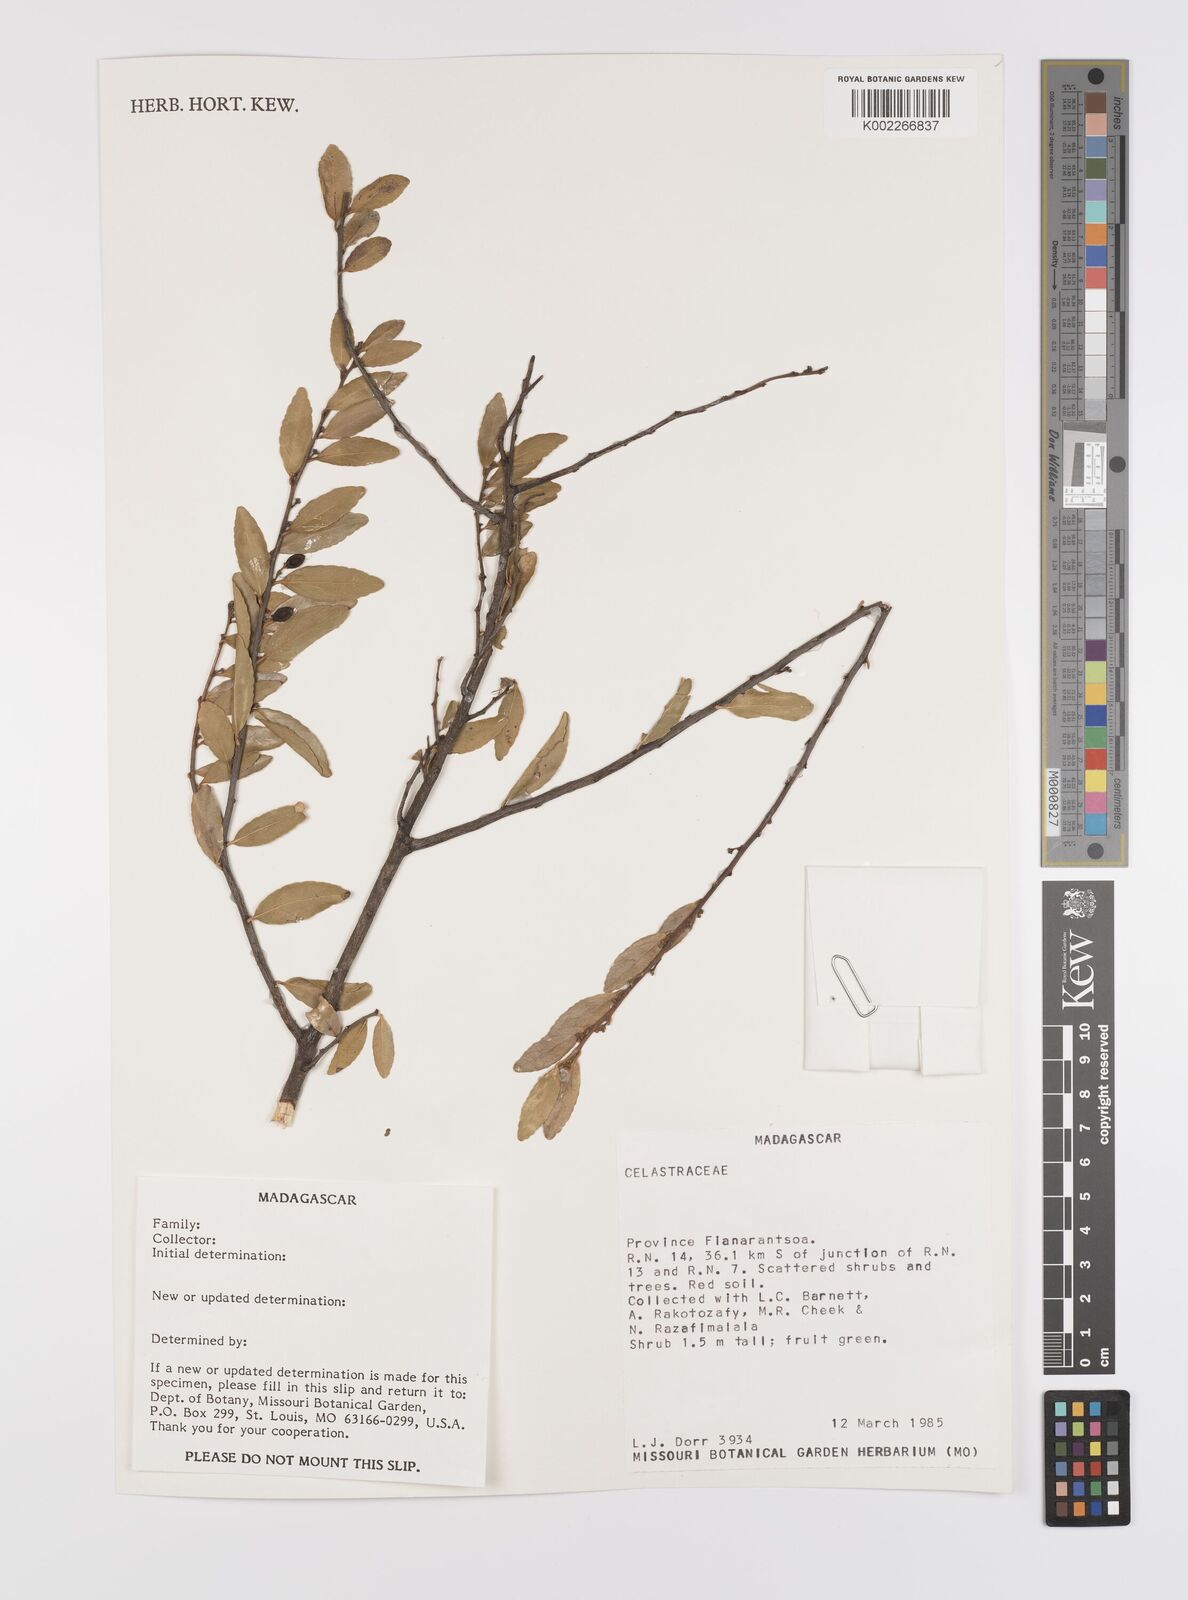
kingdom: Plantae
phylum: Tracheophyta
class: Magnoliopsida
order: Celastrales
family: Celastraceae
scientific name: Celastraceae
